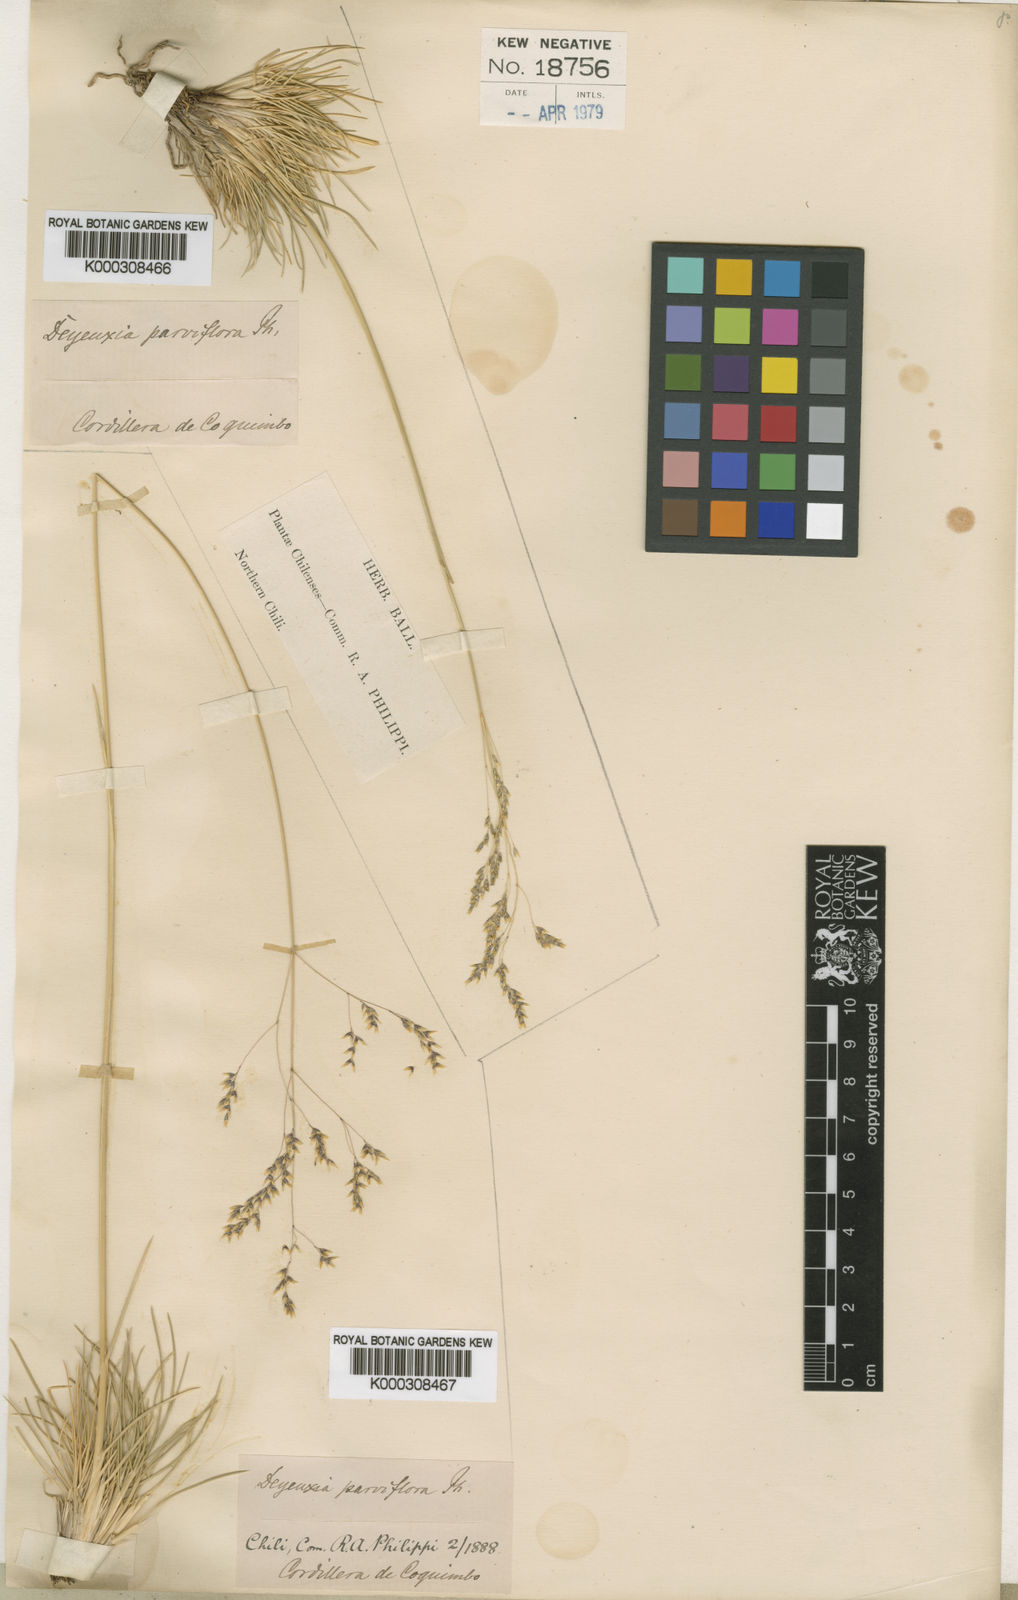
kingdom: Plantae
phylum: Tracheophyta
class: Liliopsida
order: Poales
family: Poaceae
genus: Calamagrostis
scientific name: Calamagrostis arundinacea
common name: Metskastik
